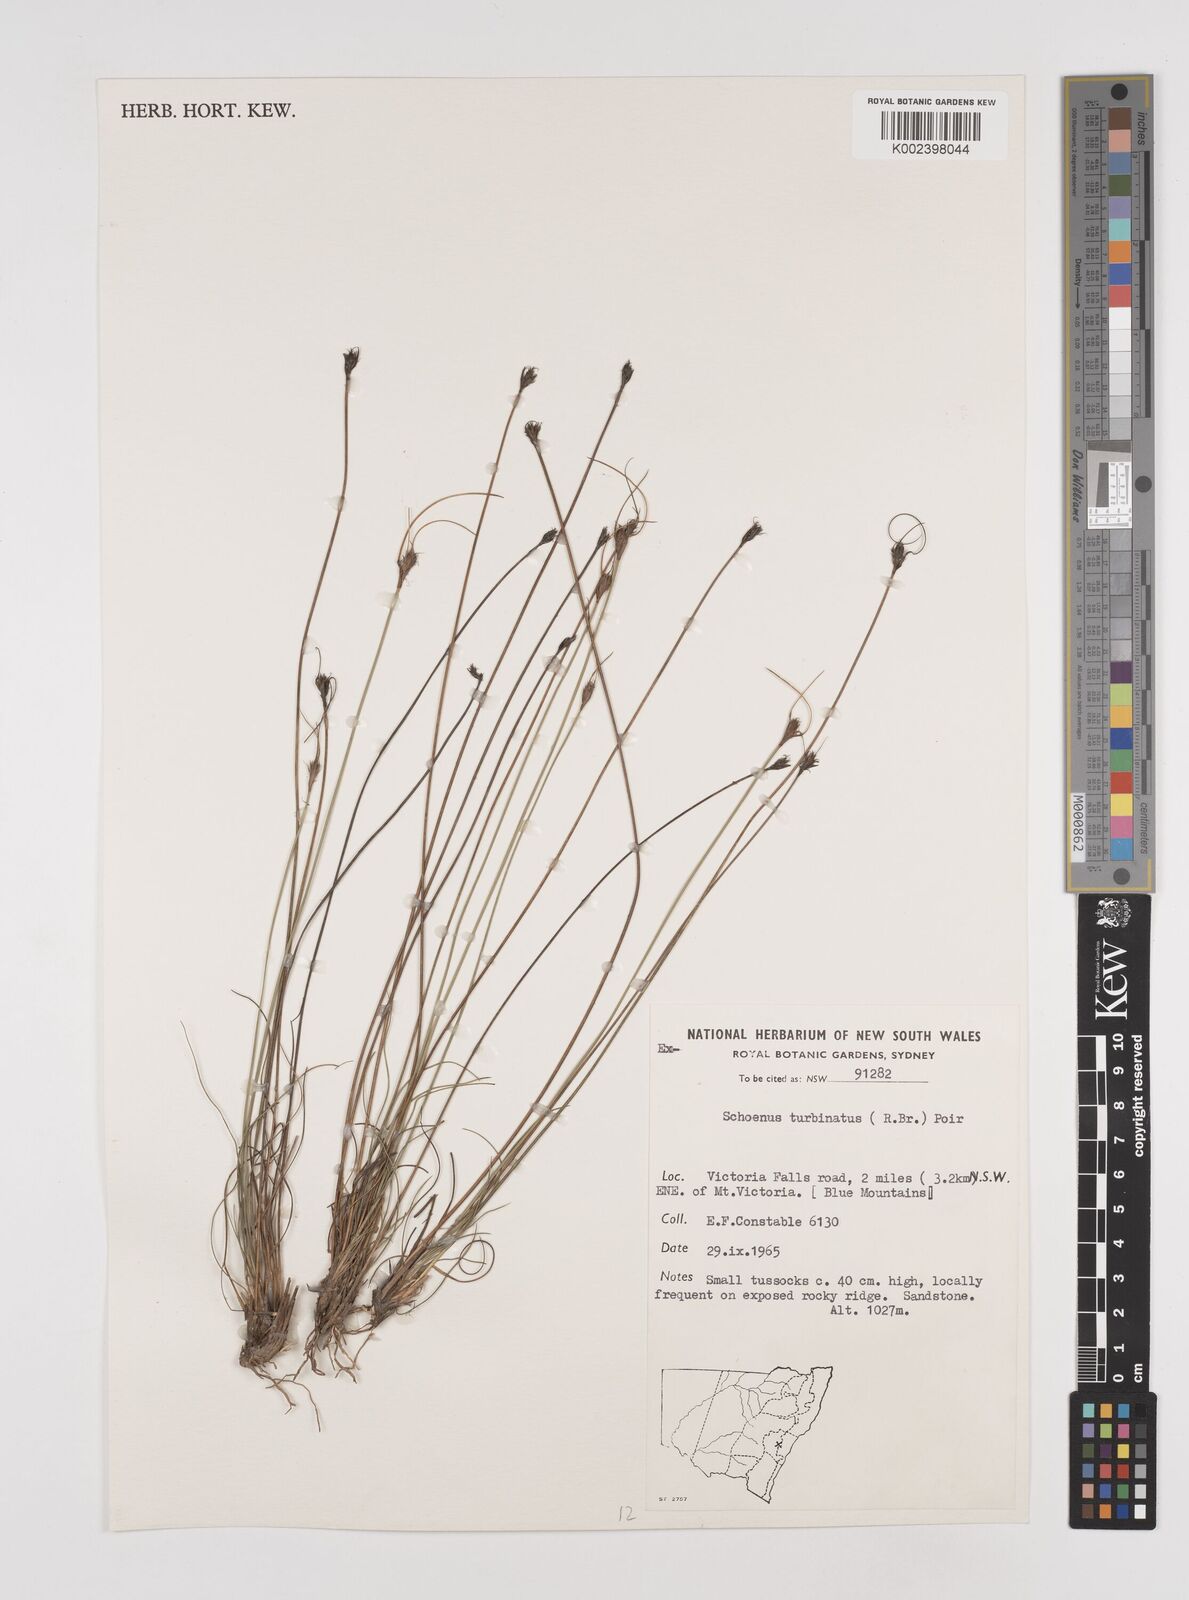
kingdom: Plantae
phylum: Tracheophyta
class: Liliopsida
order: Poales
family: Cyperaceae
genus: Schoenus
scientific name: Schoenus turbinatus
